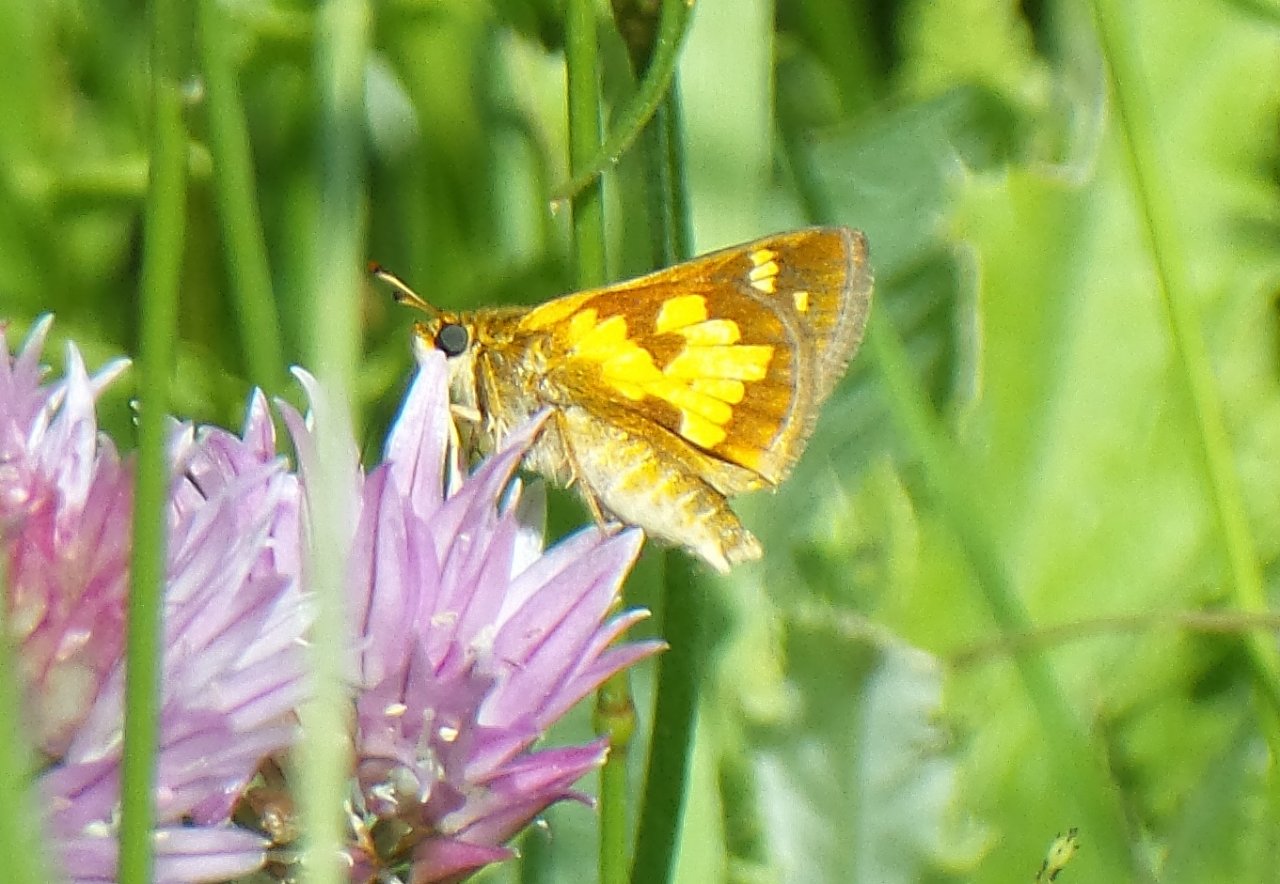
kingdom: Animalia
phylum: Arthropoda
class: Insecta
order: Lepidoptera
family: Hesperiidae
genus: Polites
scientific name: Polites coras
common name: Peck's Skipper
